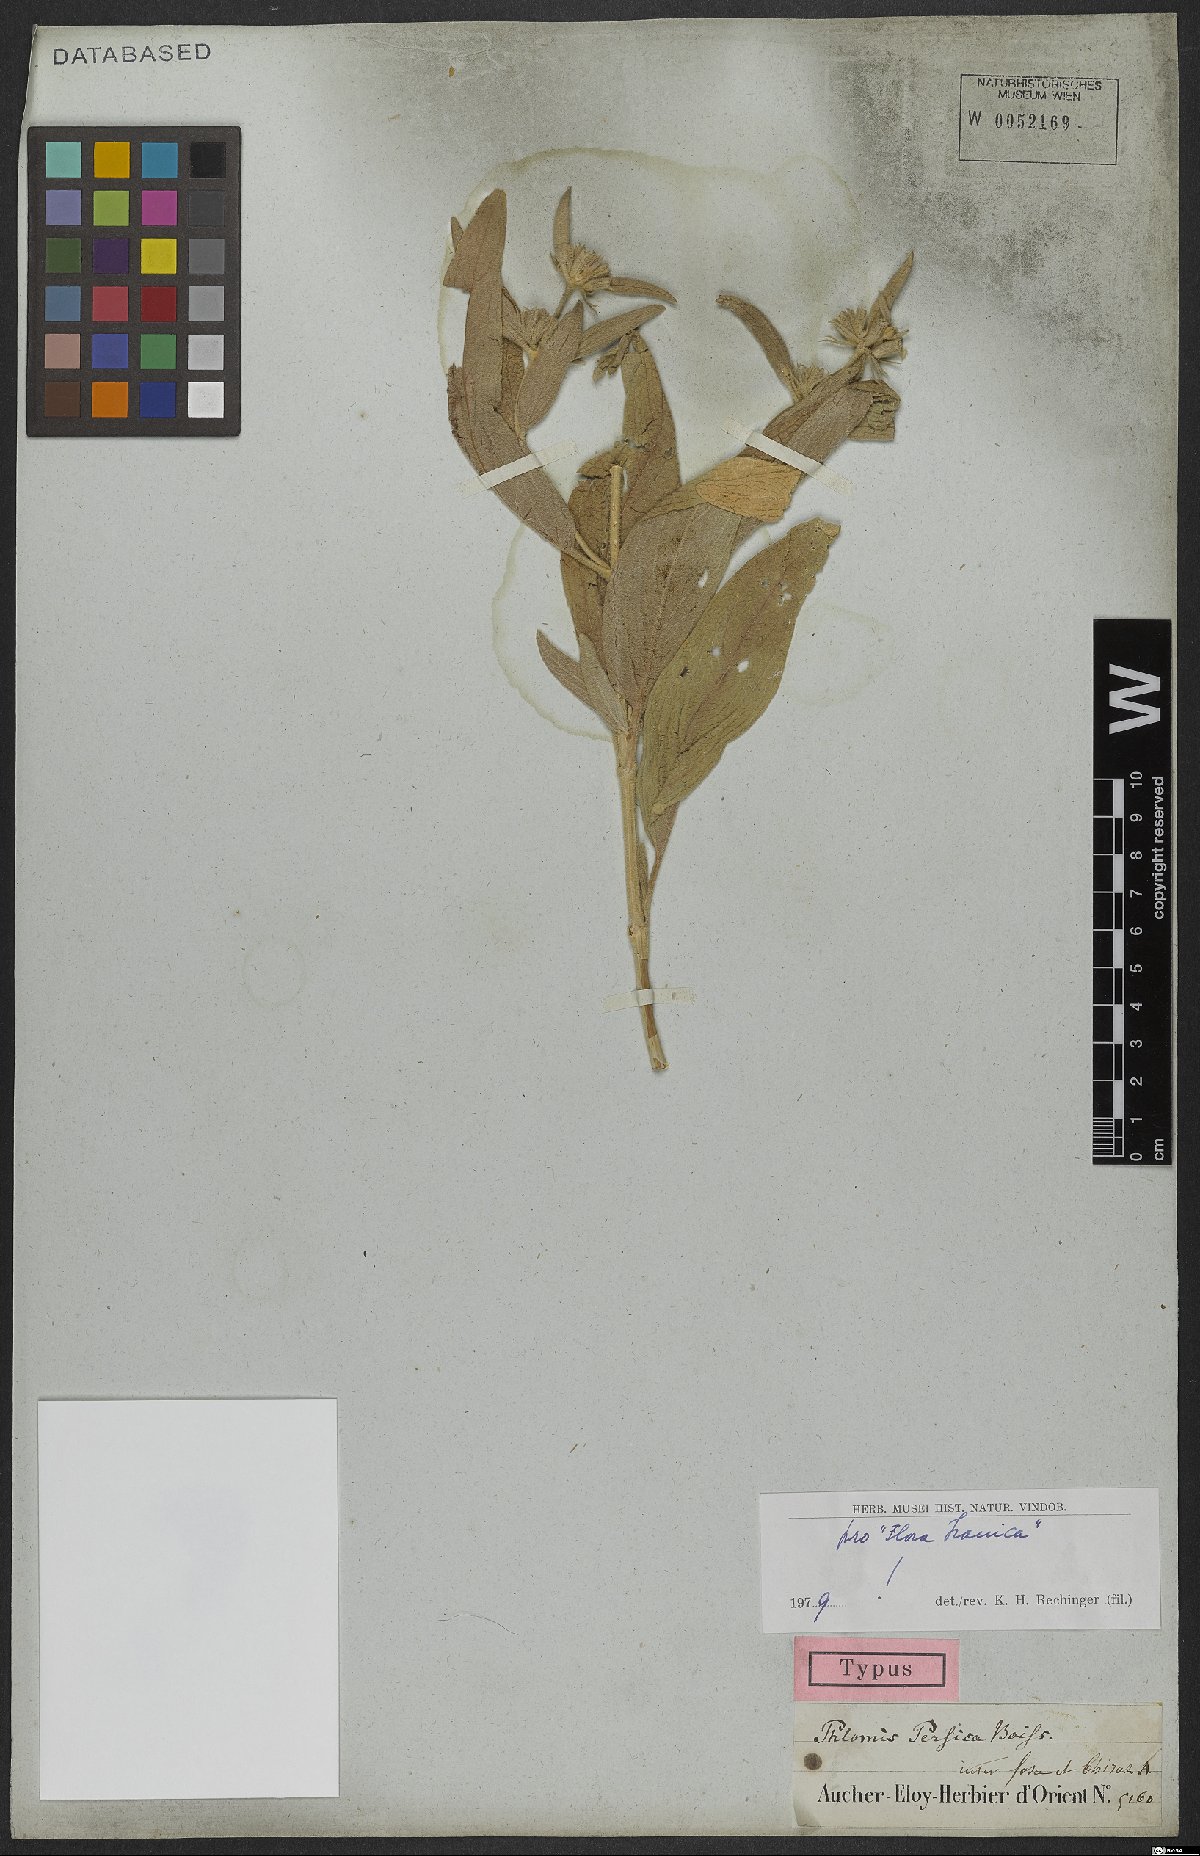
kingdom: Plantae
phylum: Tracheophyta
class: Magnoliopsida
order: Lamiales
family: Lamiaceae
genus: Phlomis
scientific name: Phlomis persica
